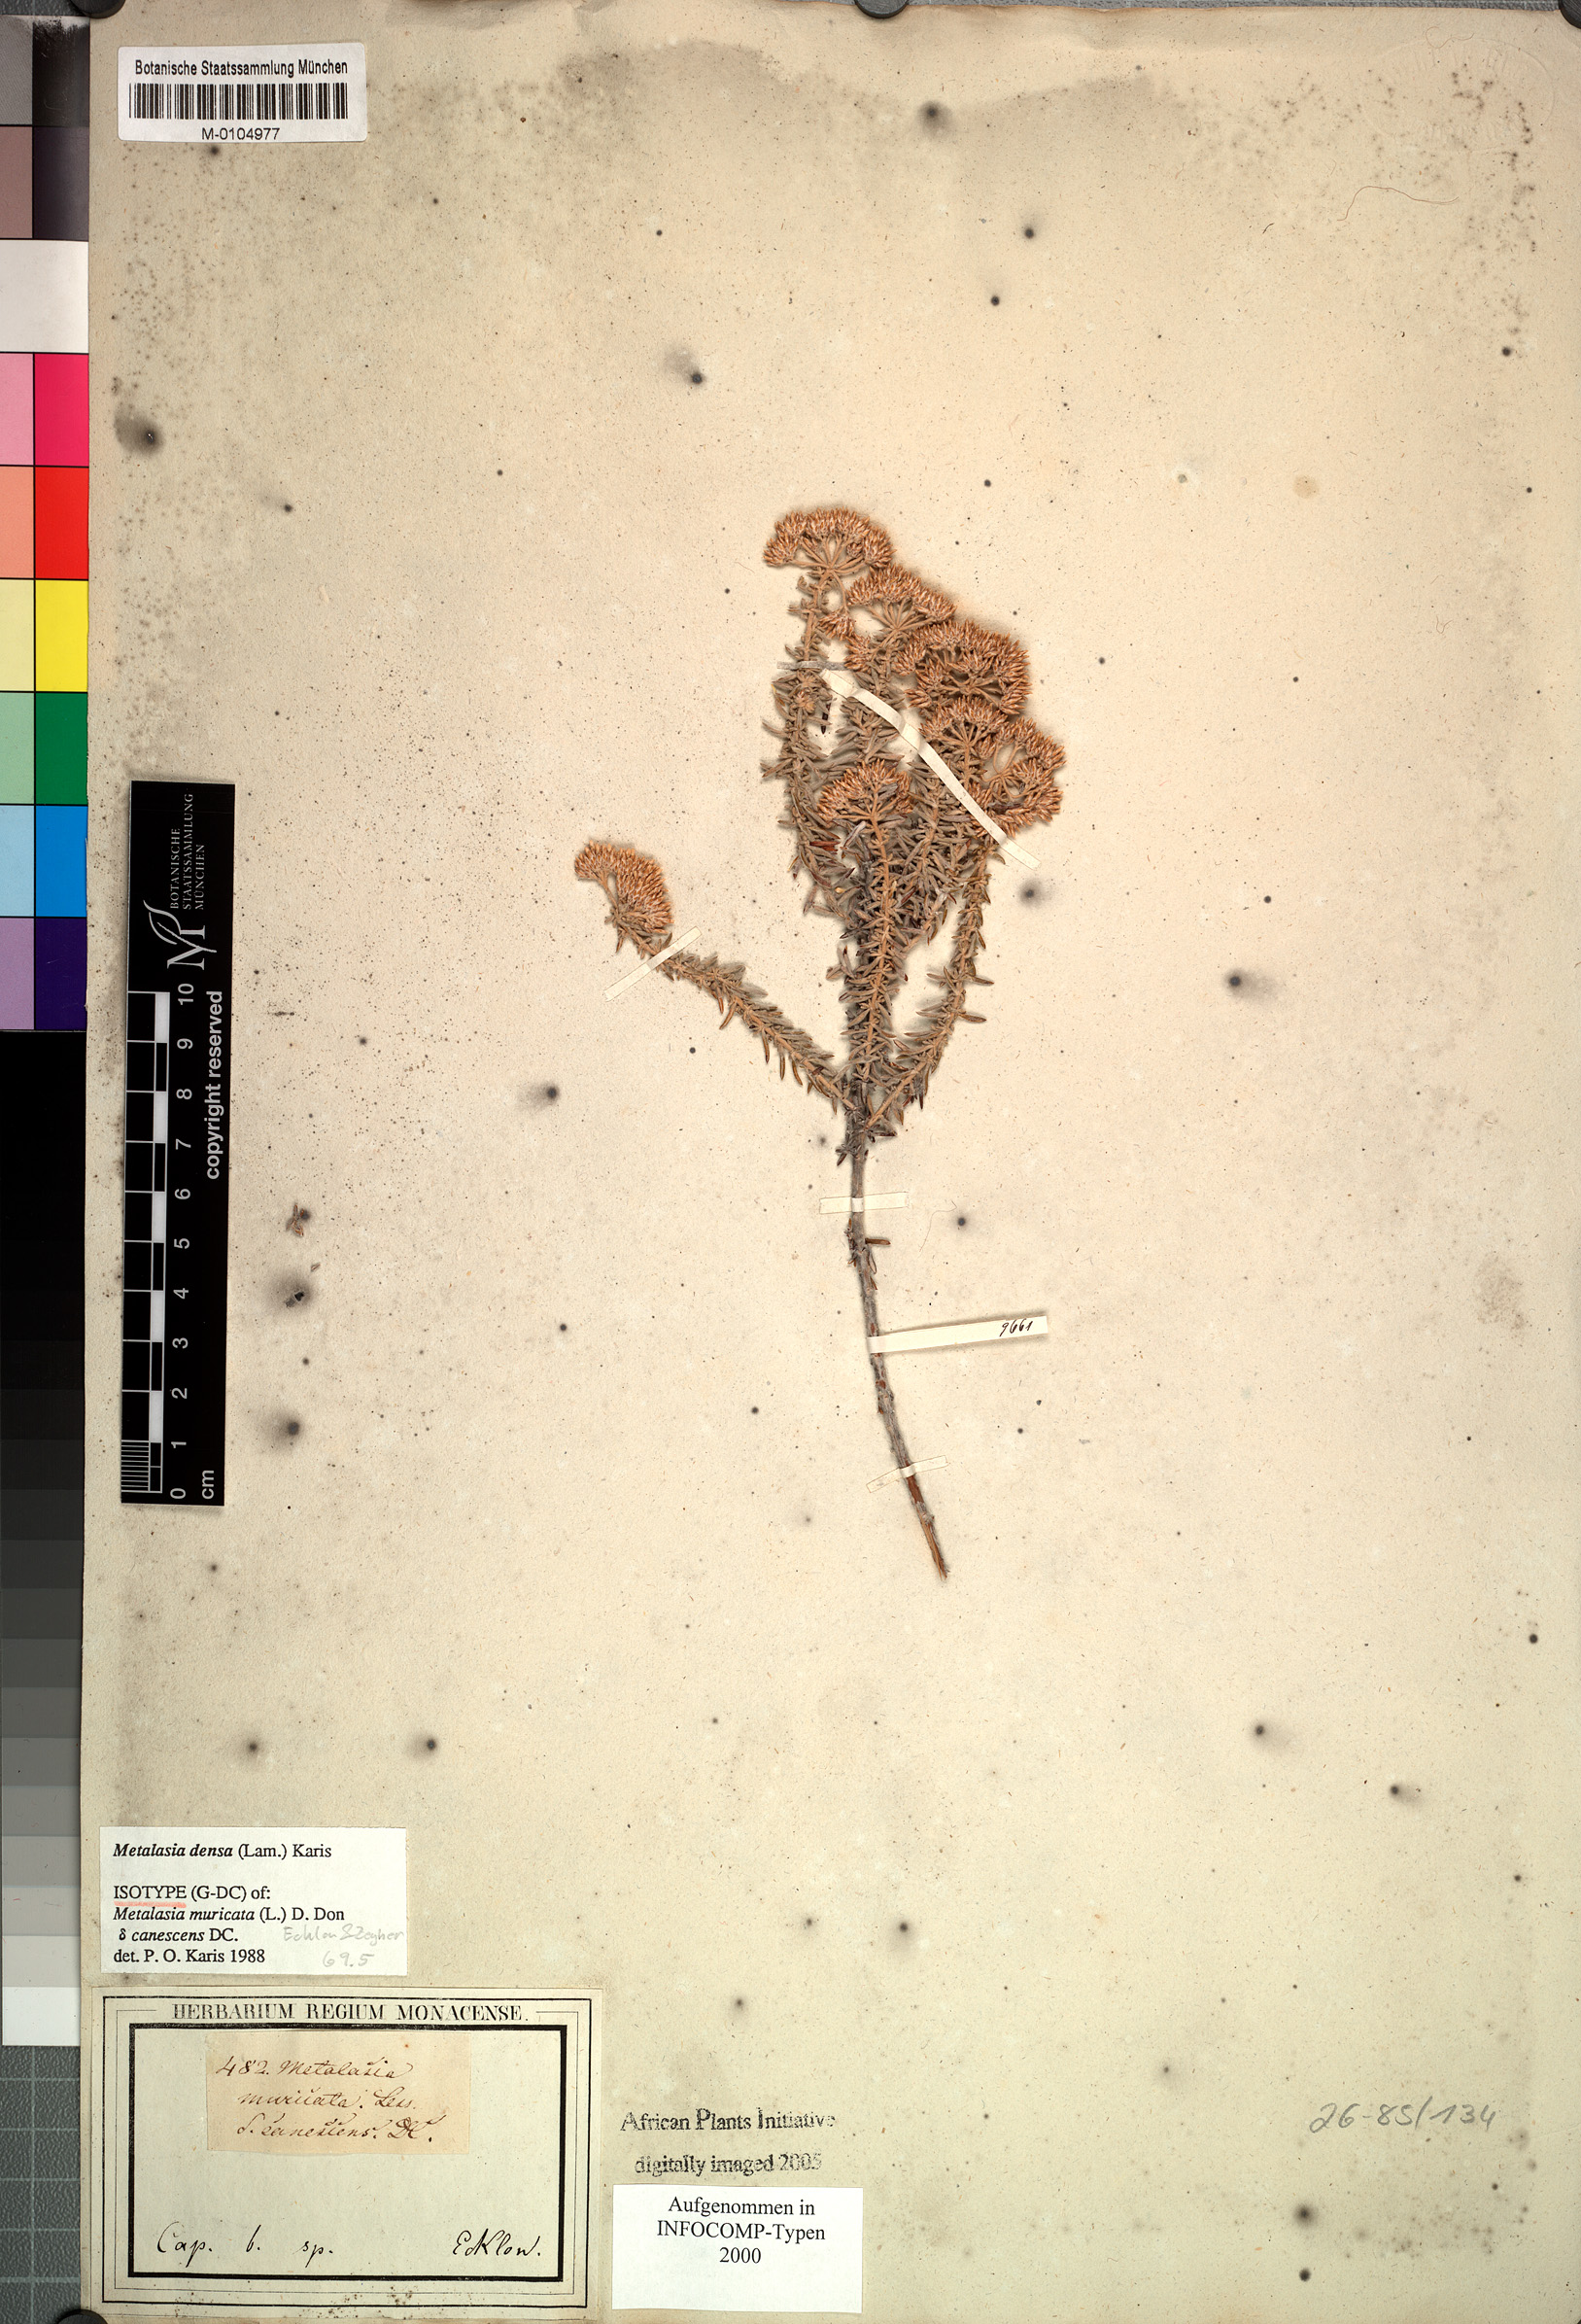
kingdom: Plantae
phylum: Tracheophyta
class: Magnoliopsida
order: Asterales
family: Asteraceae
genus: Metalasia
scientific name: Metalasia densa
